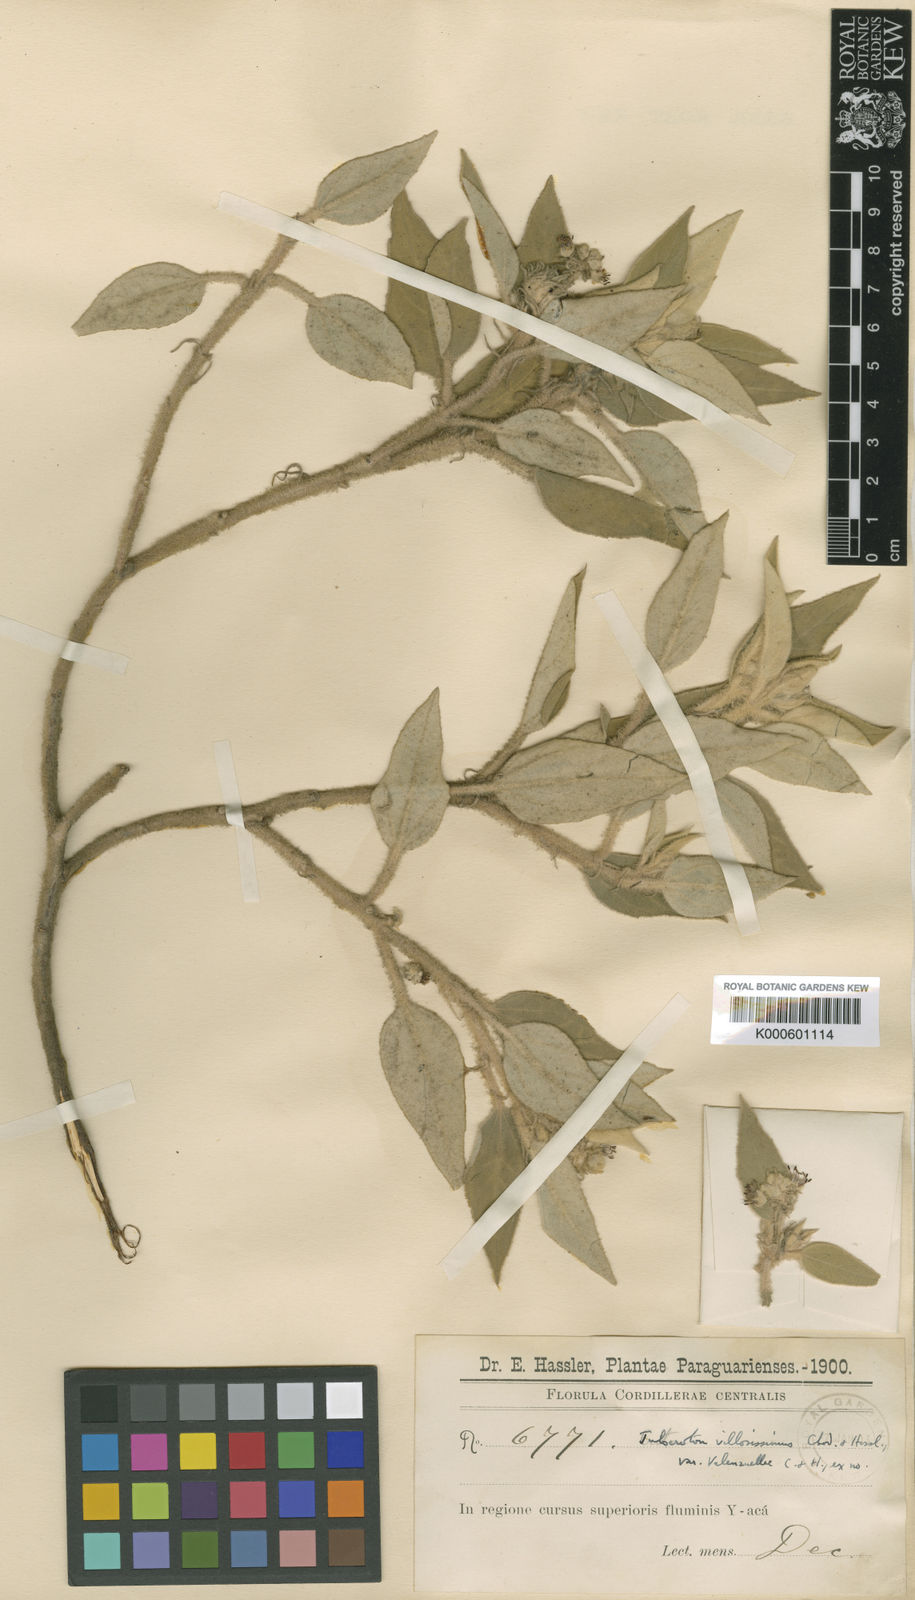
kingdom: Plantae
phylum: Tracheophyta
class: Magnoliopsida
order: Malpighiales
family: Euphorbiaceae
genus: Croton
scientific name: Croton villosissimus
